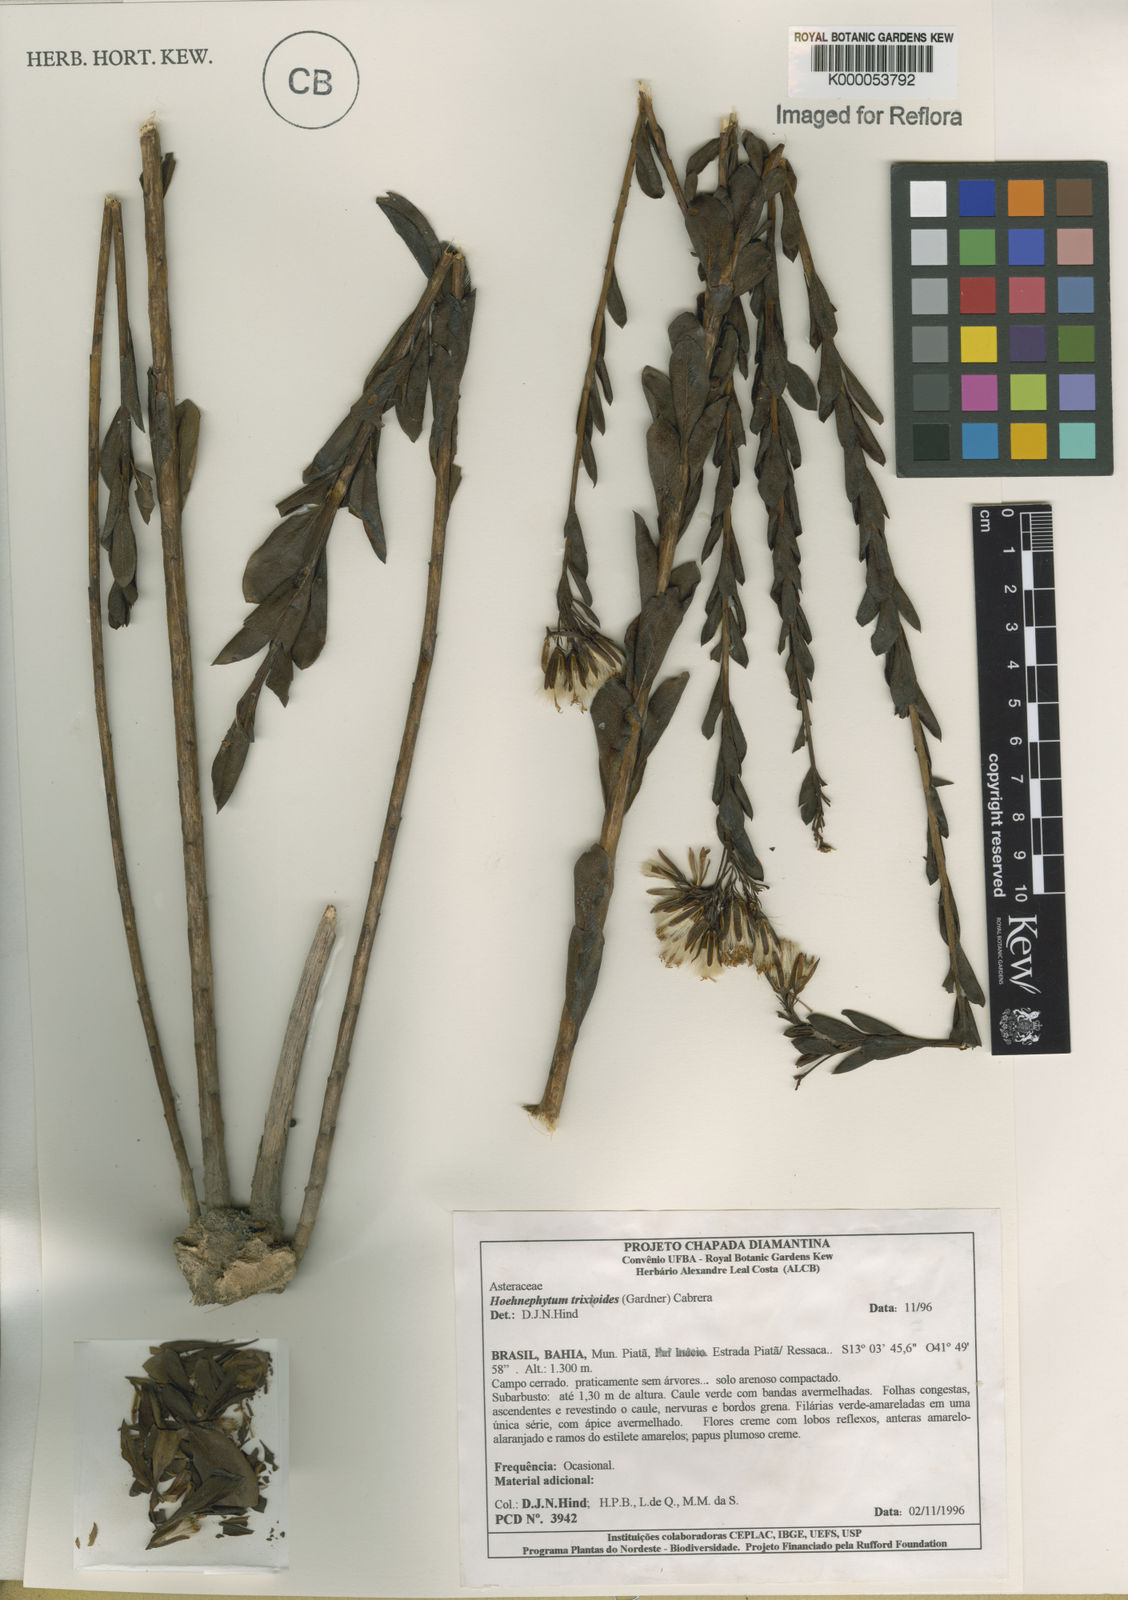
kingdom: Plantae
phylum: Tracheophyta
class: Magnoliopsida
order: Asterales
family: Asteraceae
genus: Hoehnephytum
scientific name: Hoehnephytum trixoides
